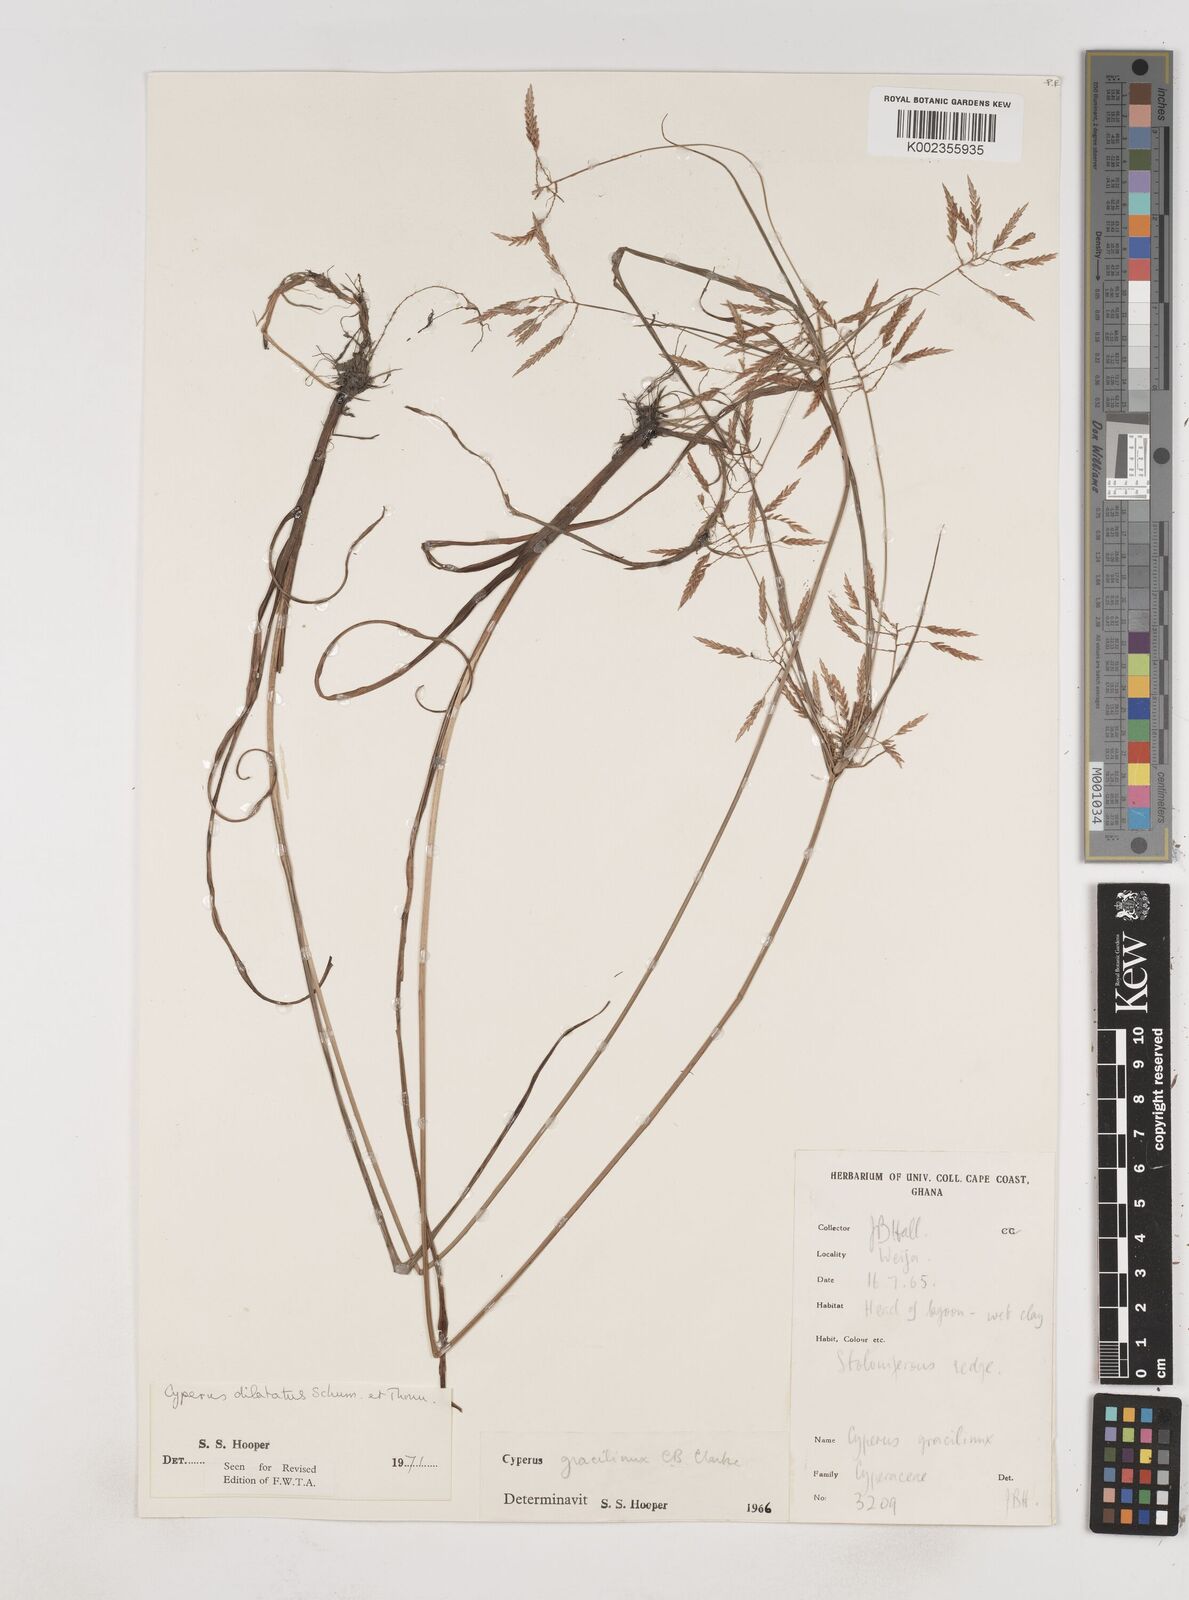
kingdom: Plantae
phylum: Tracheophyta
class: Liliopsida
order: Poales
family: Cyperaceae
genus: Cyperus
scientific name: Cyperus dilatatus
